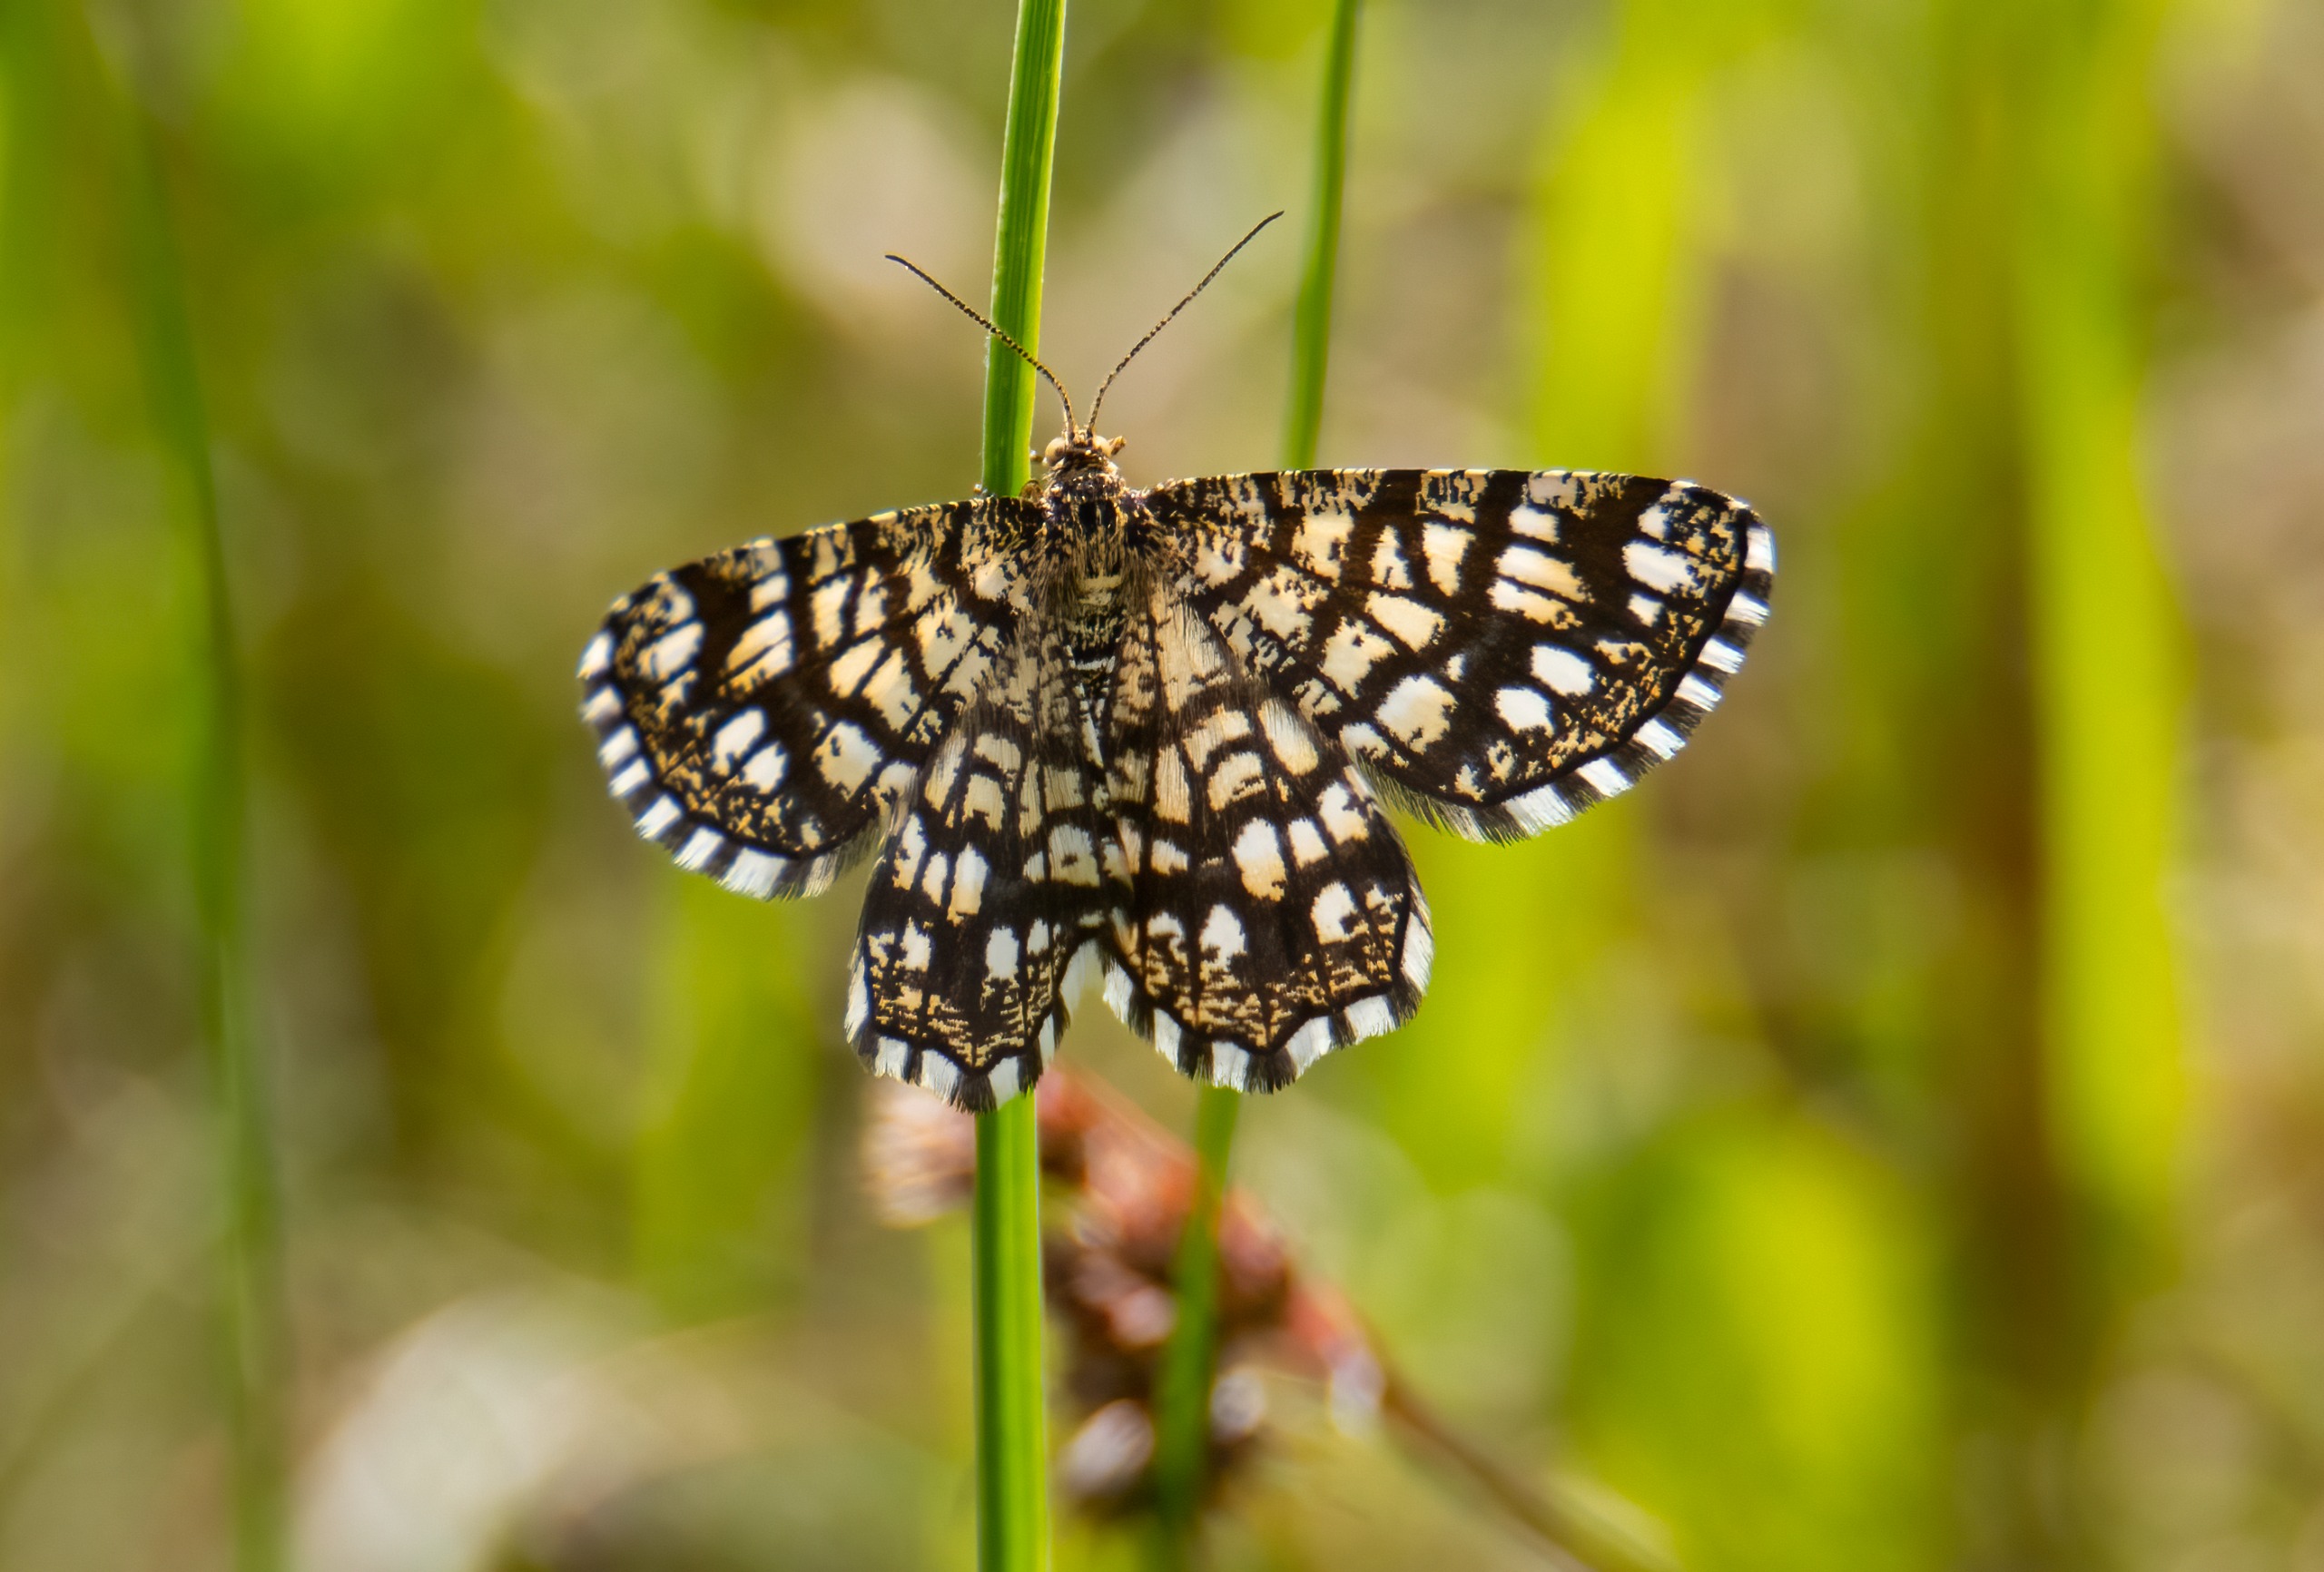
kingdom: Animalia
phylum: Arthropoda
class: Insecta
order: Lepidoptera
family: Geometridae
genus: Chiasmia
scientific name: Chiasmia clathrata
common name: Kløvermåler
